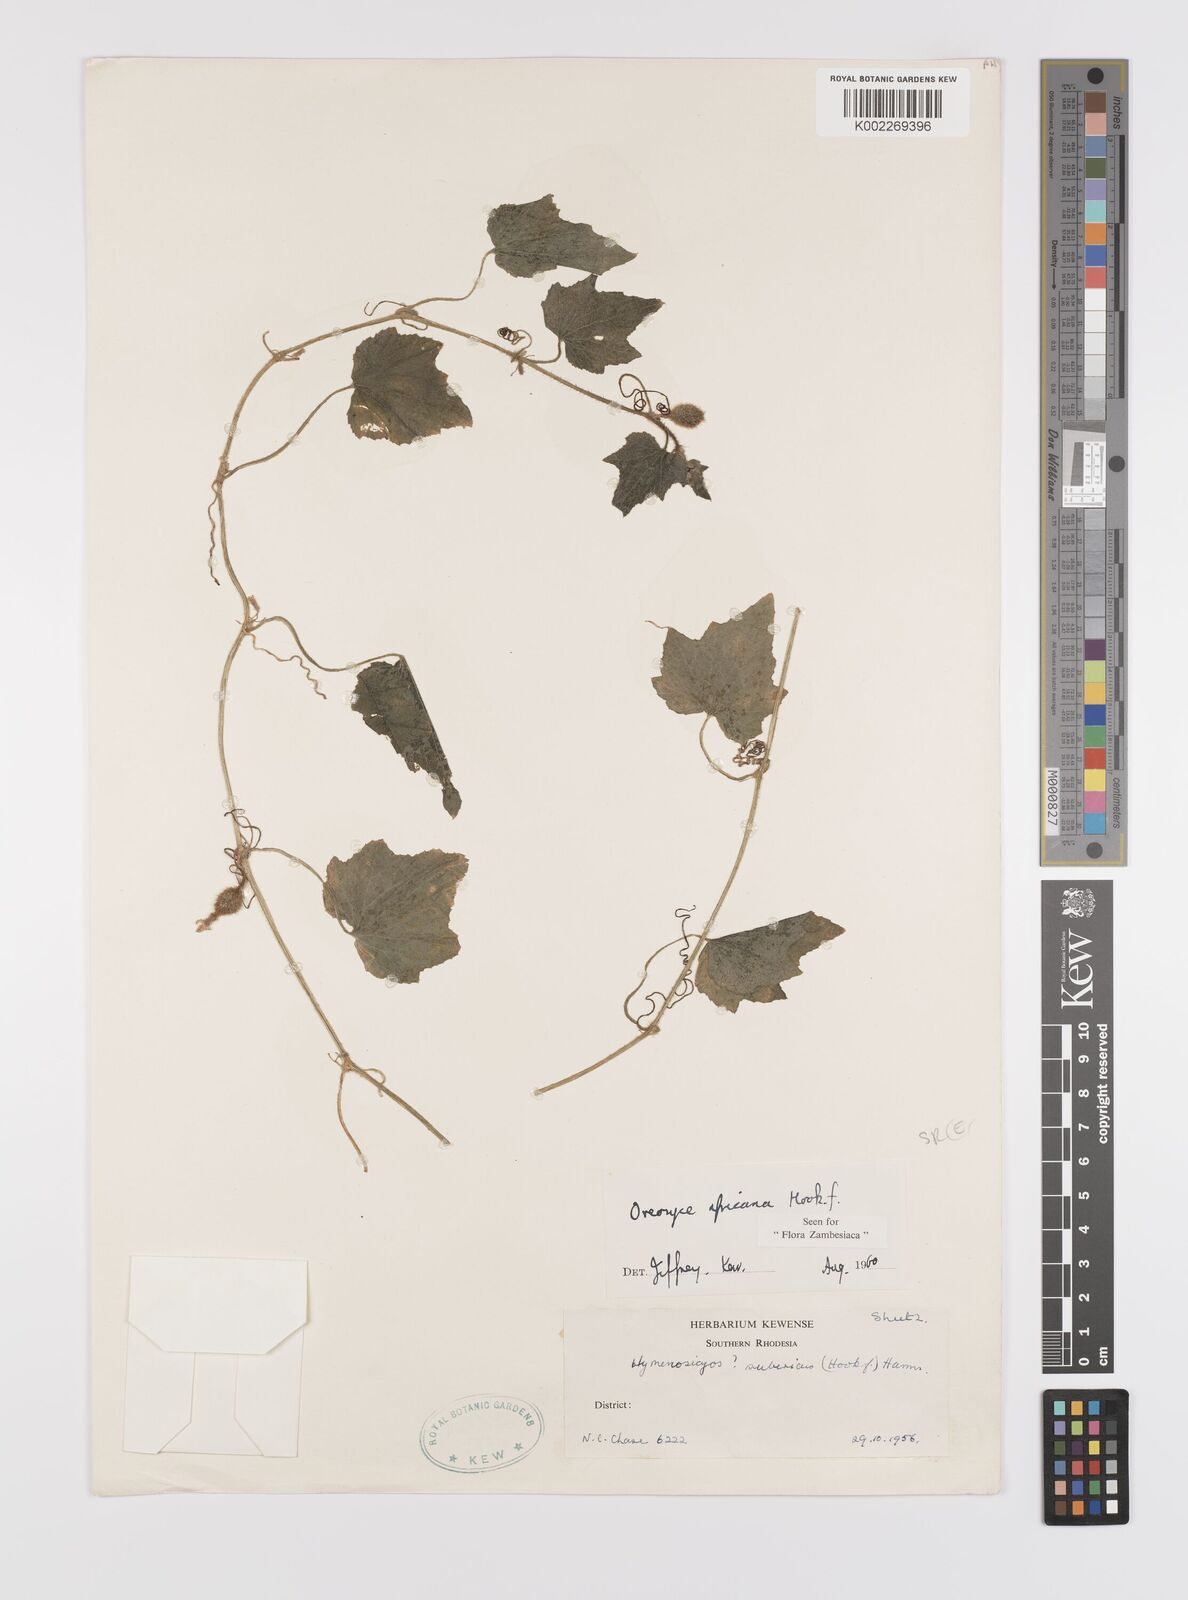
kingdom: Plantae
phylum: Tracheophyta
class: Magnoliopsida
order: Cucurbitales
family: Cucurbitaceae
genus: Cucumis
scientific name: Cucumis oreosyce
